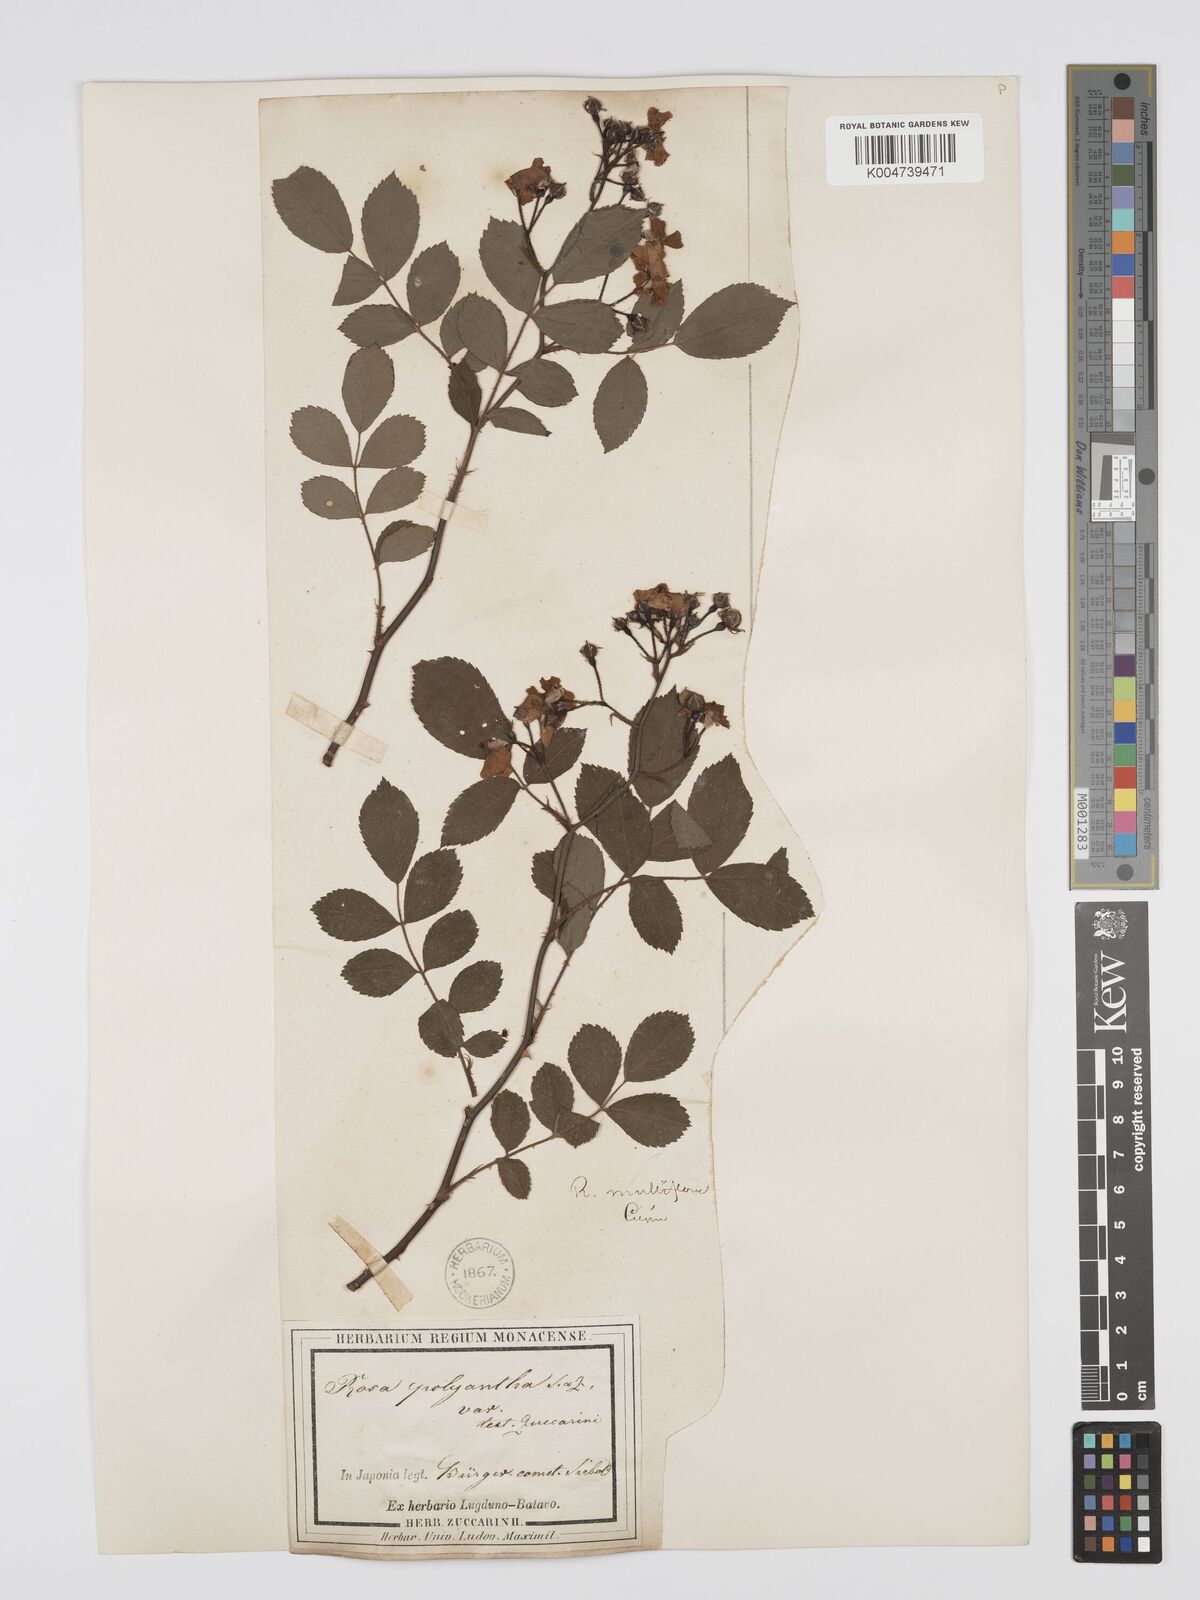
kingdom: Plantae
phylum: Tracheophyta
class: Magnoliopsida
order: Rosales
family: Rosaceae
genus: Rosa
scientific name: Rosa
